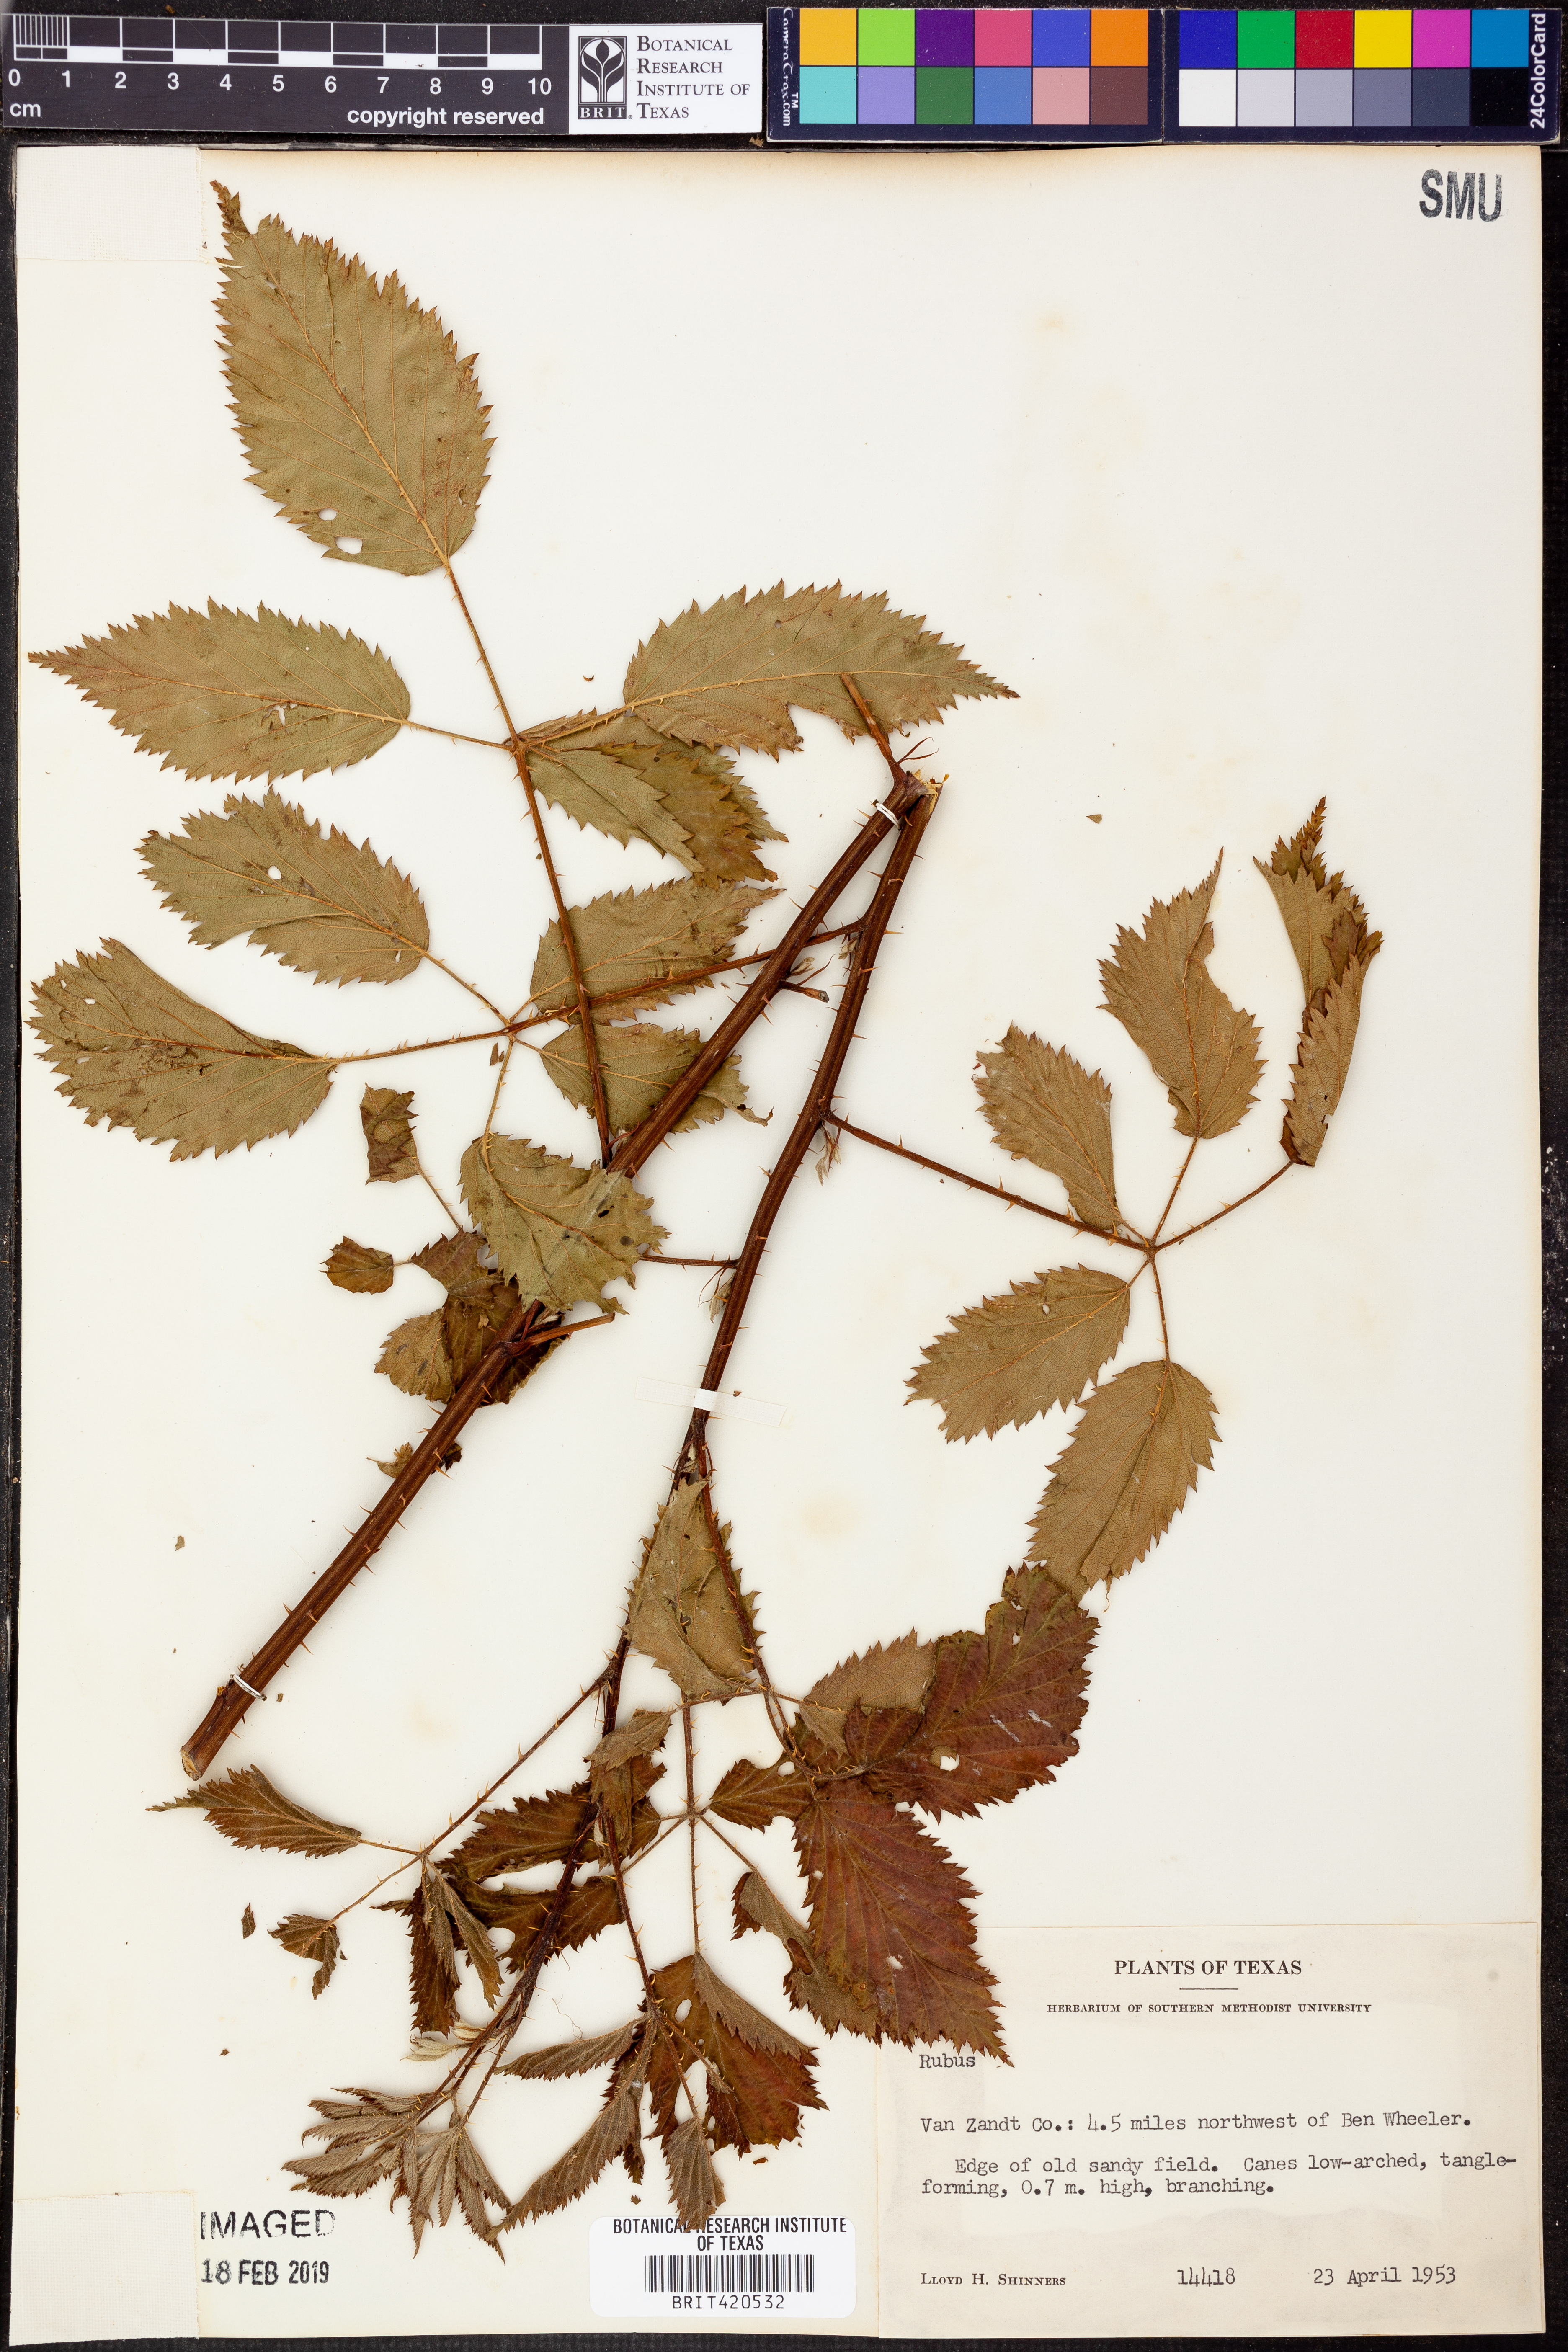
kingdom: Plantae
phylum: Tracheophyta
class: Magnoliopsida
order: Rosales
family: Rosaceae
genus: Rubus
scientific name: Rubus
